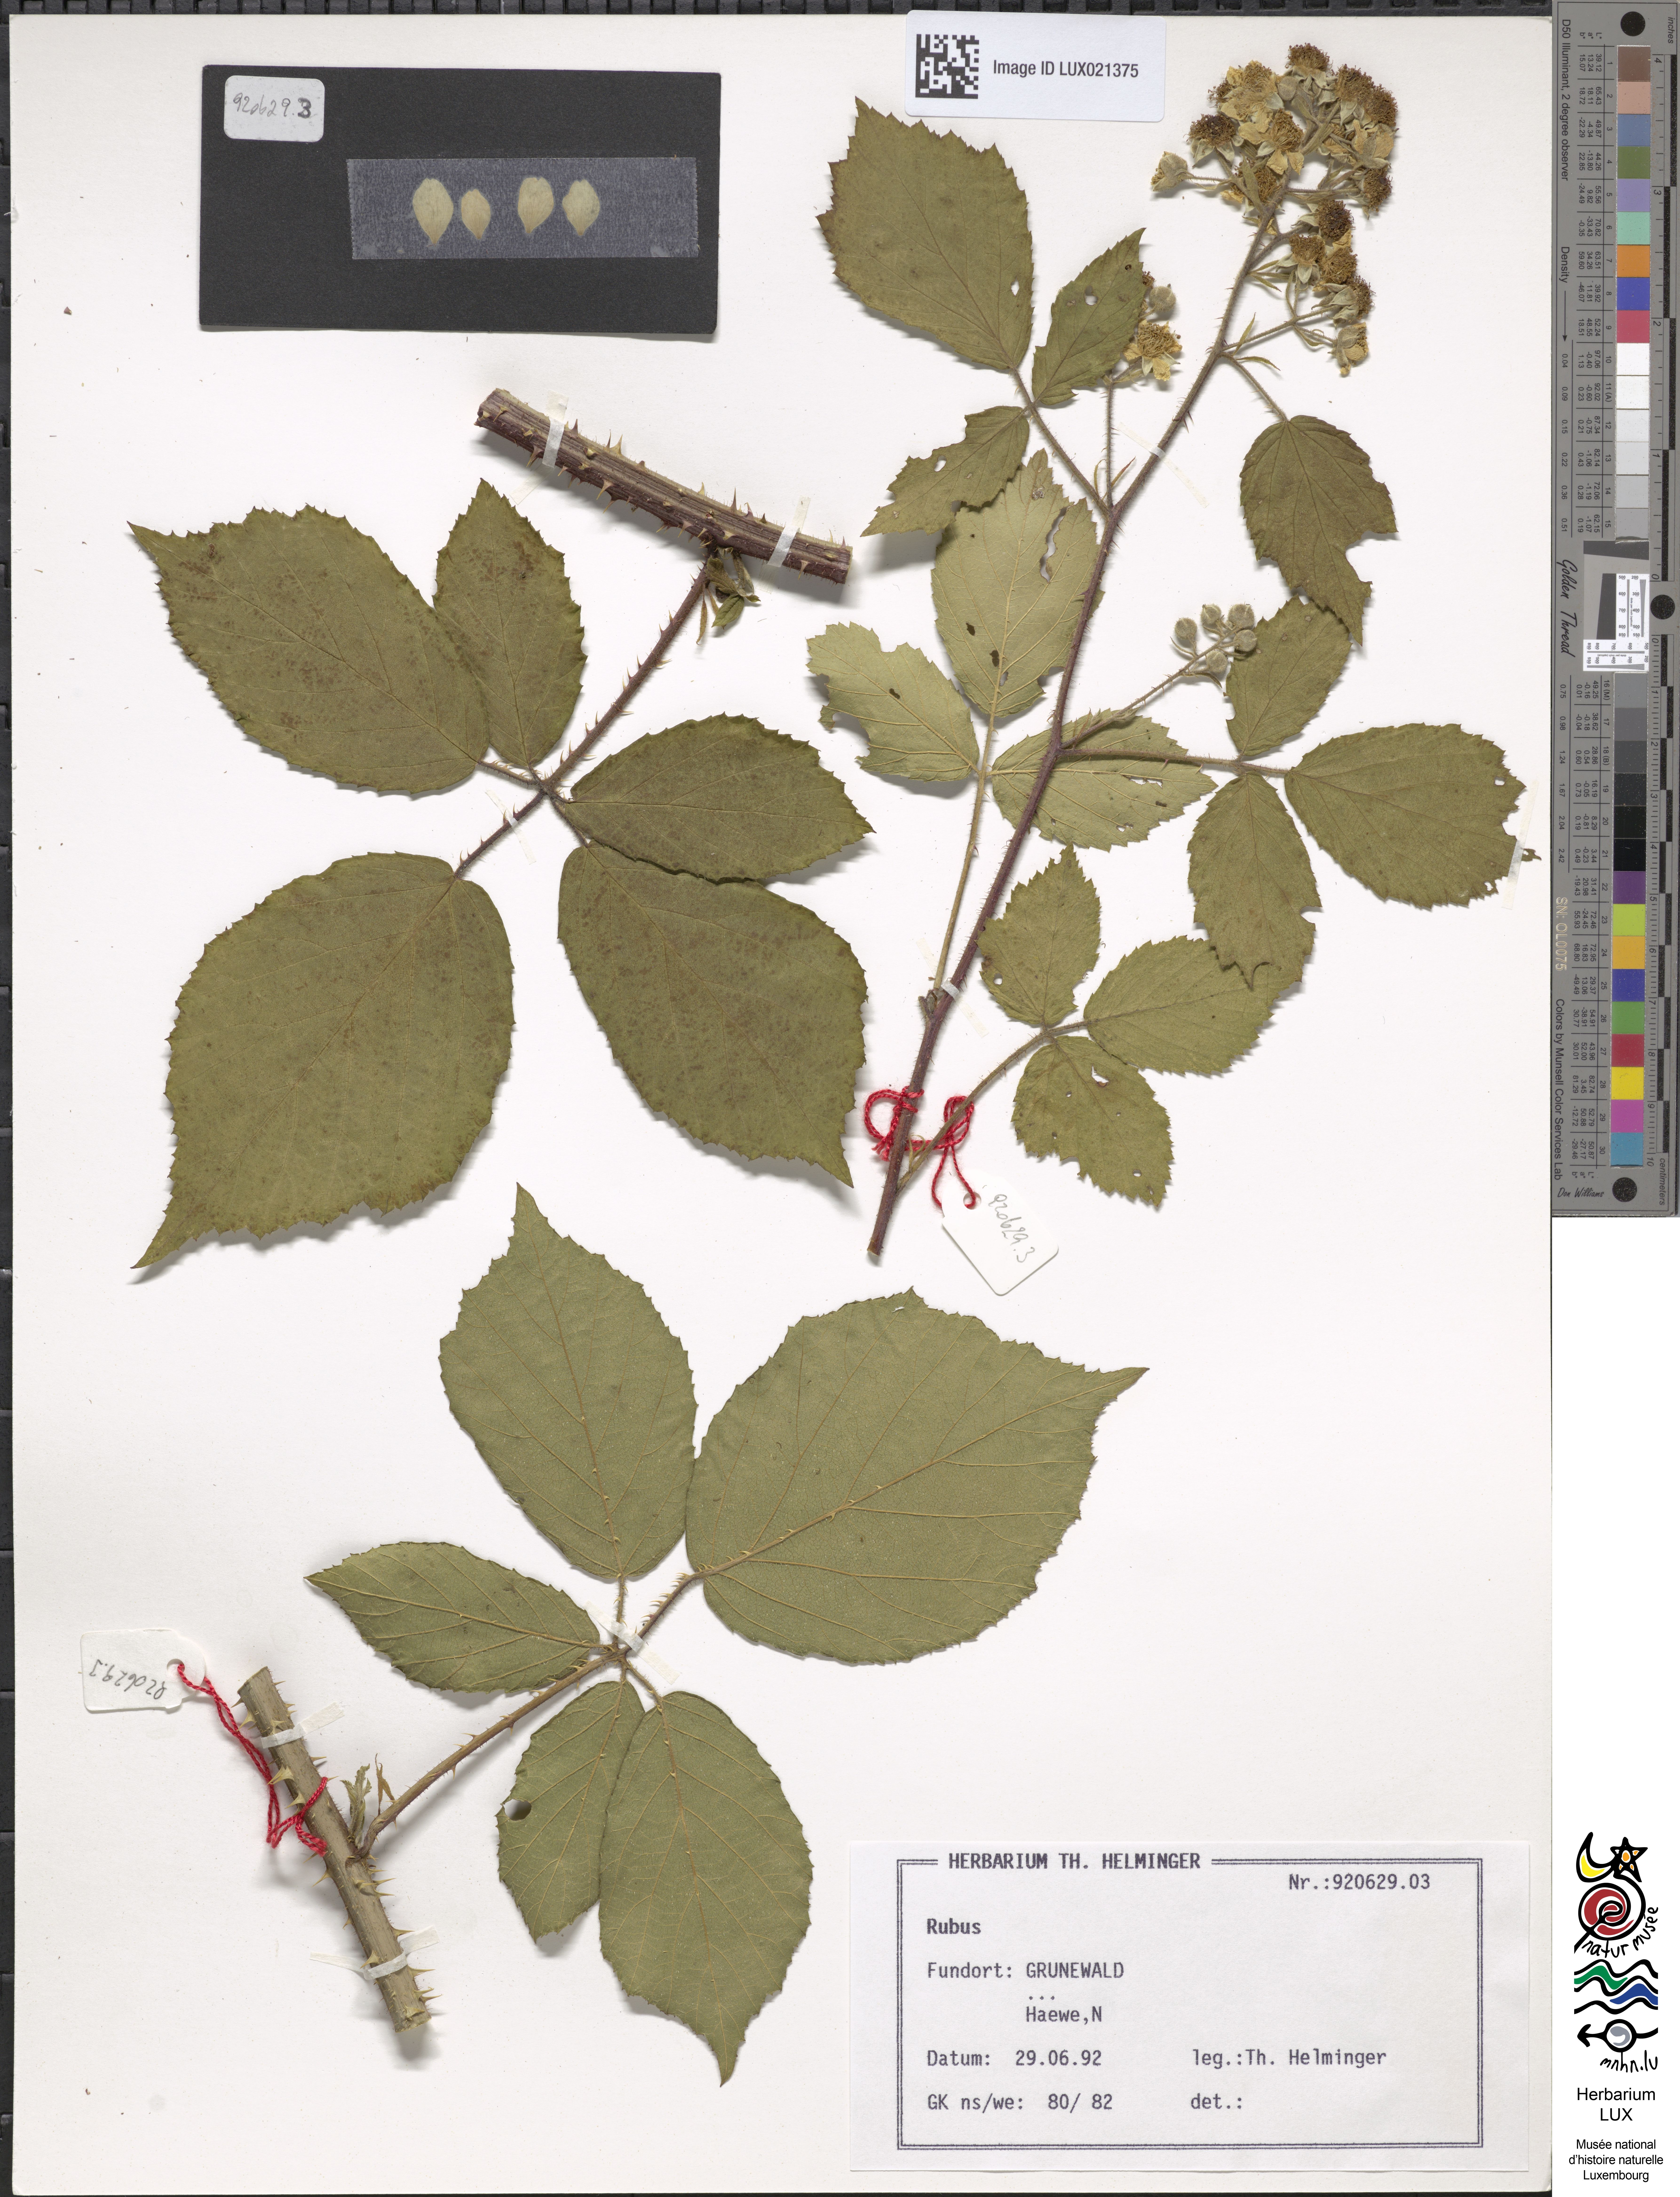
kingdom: Plantae
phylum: Tracheophyta
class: Magnoliopsida
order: Rosales
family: Rosaceae
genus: Rubus
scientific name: Rubus
